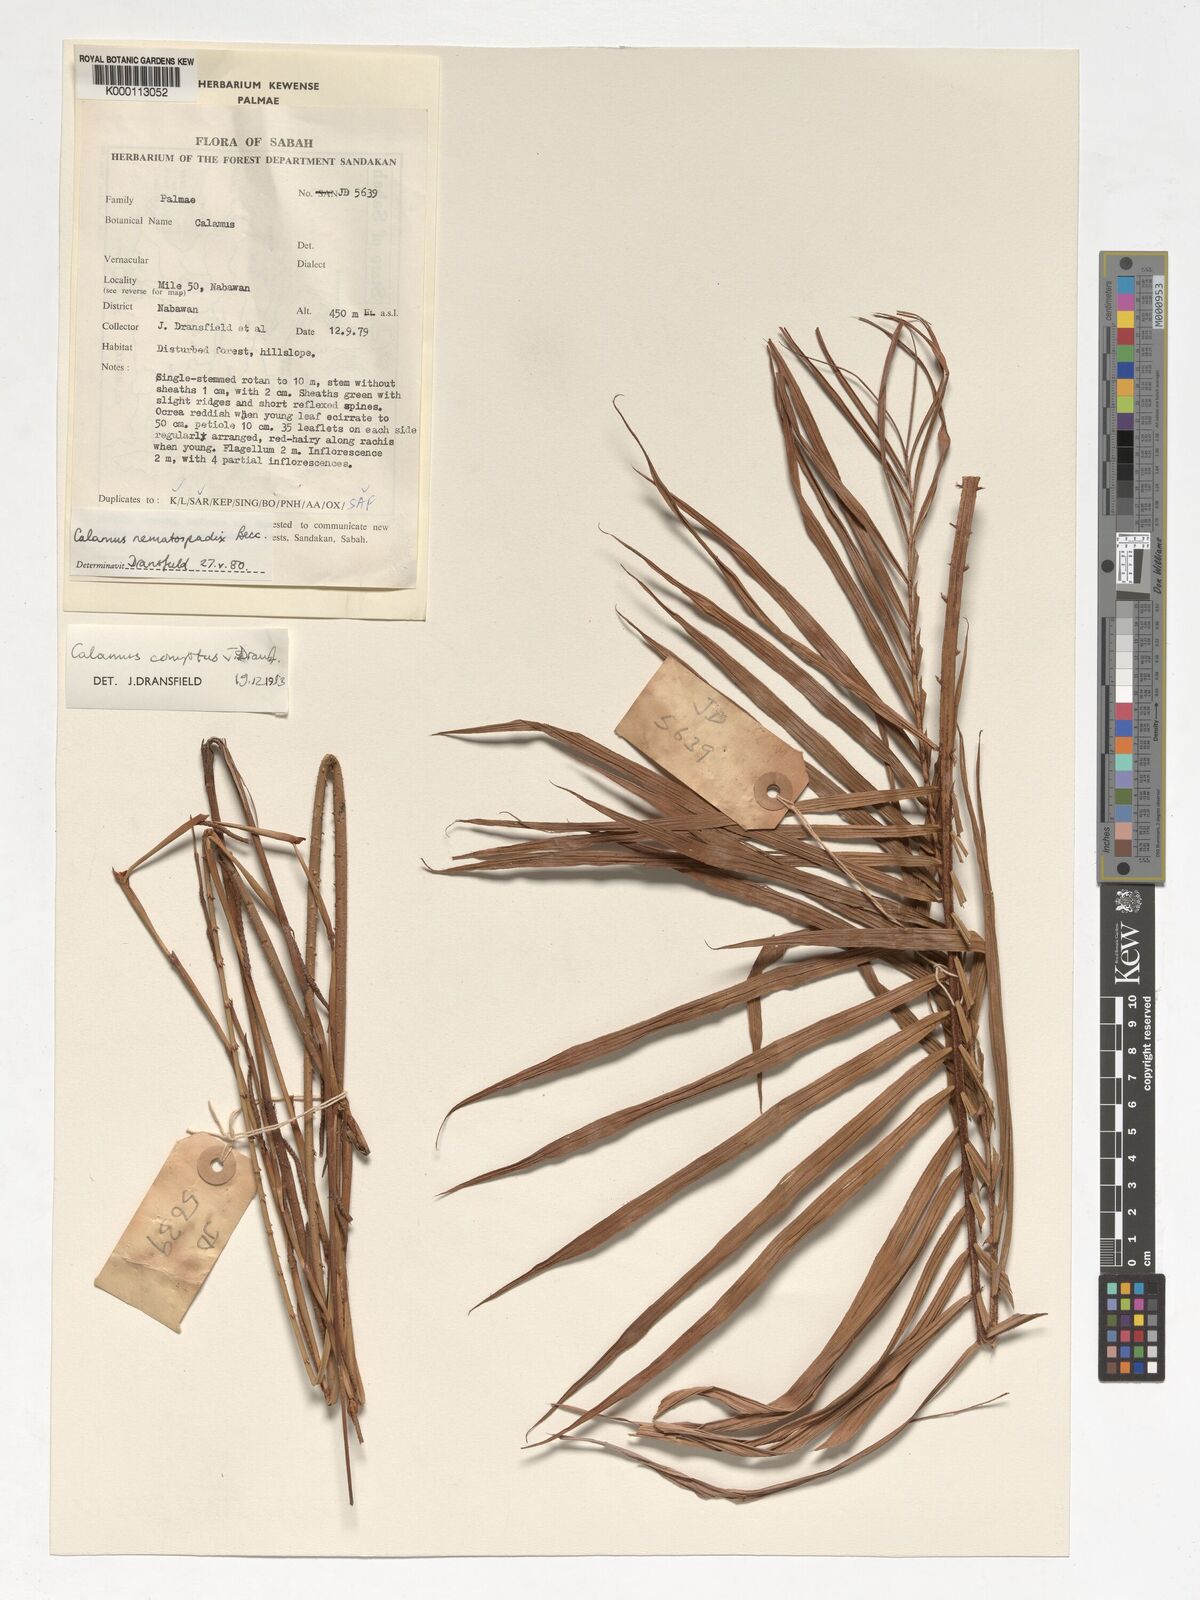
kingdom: Plantae
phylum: Tracheophyta
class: Liliopsida
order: Arecales
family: Arecaceae
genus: Calamus
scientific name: Calamus comptus
